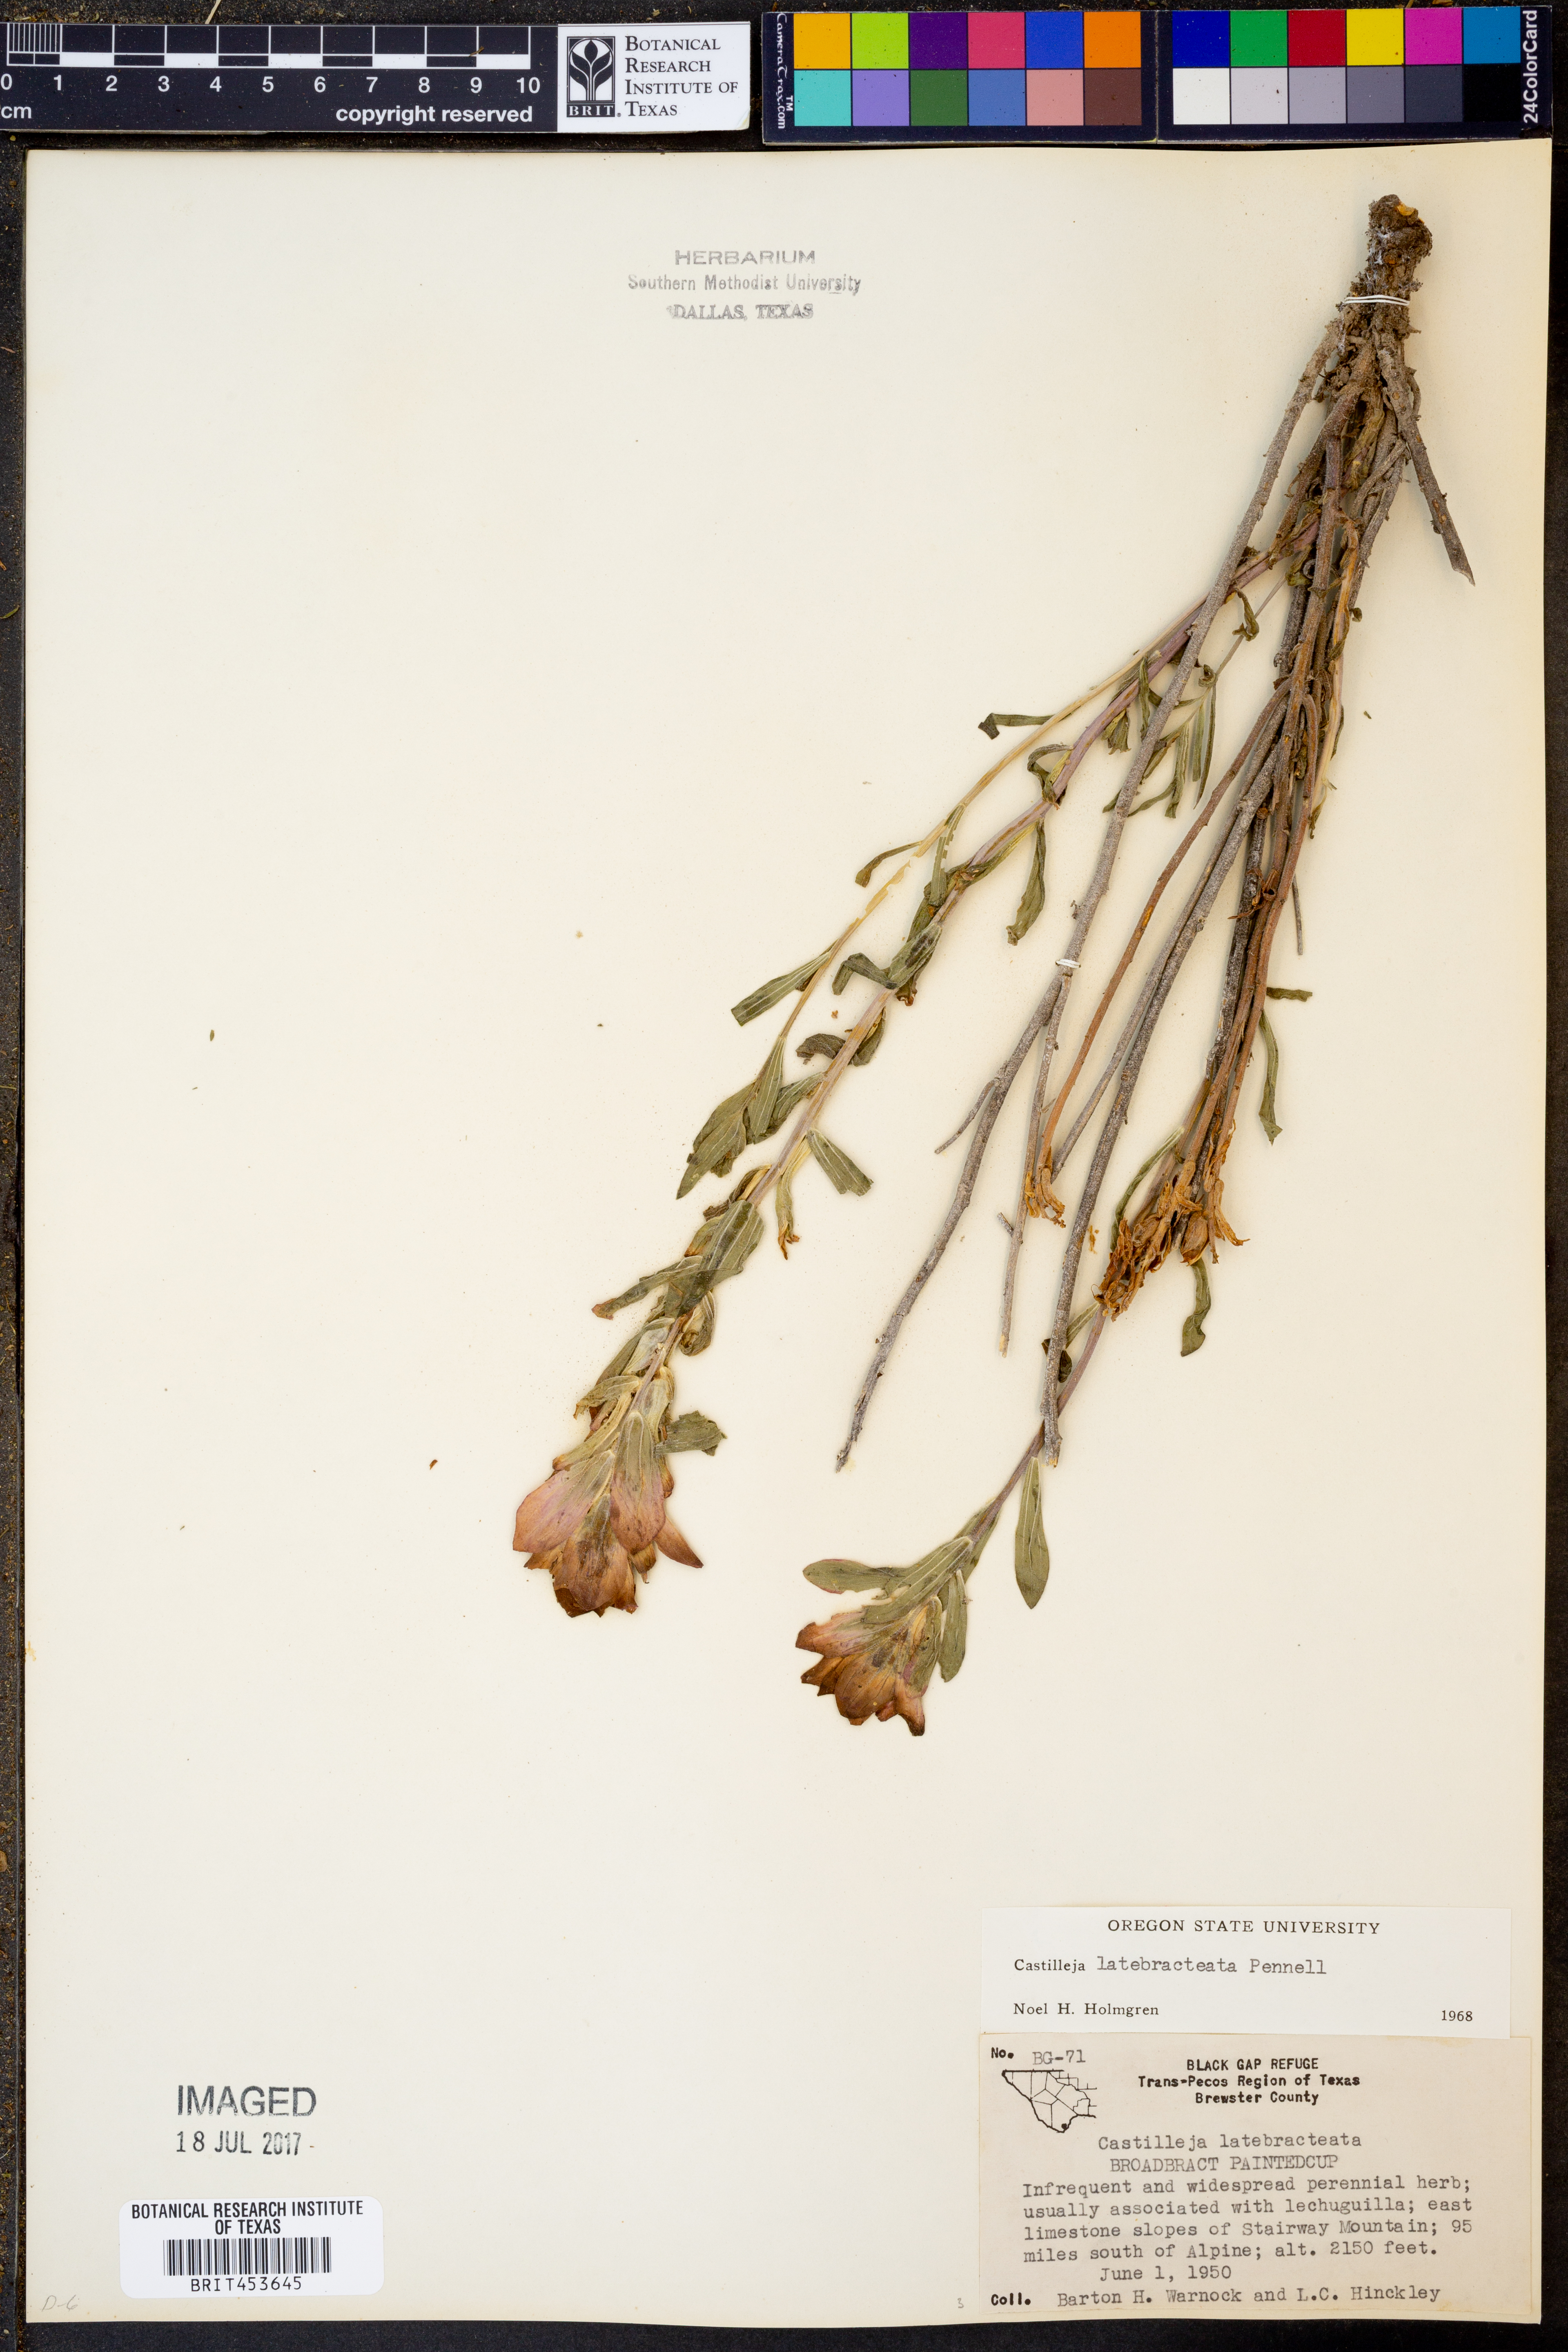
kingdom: Plantae
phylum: Tracheophyta
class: Magnoliopsida
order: Lamiales
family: Orobanchaceae
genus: Castilleja
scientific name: Castilleja rigida
